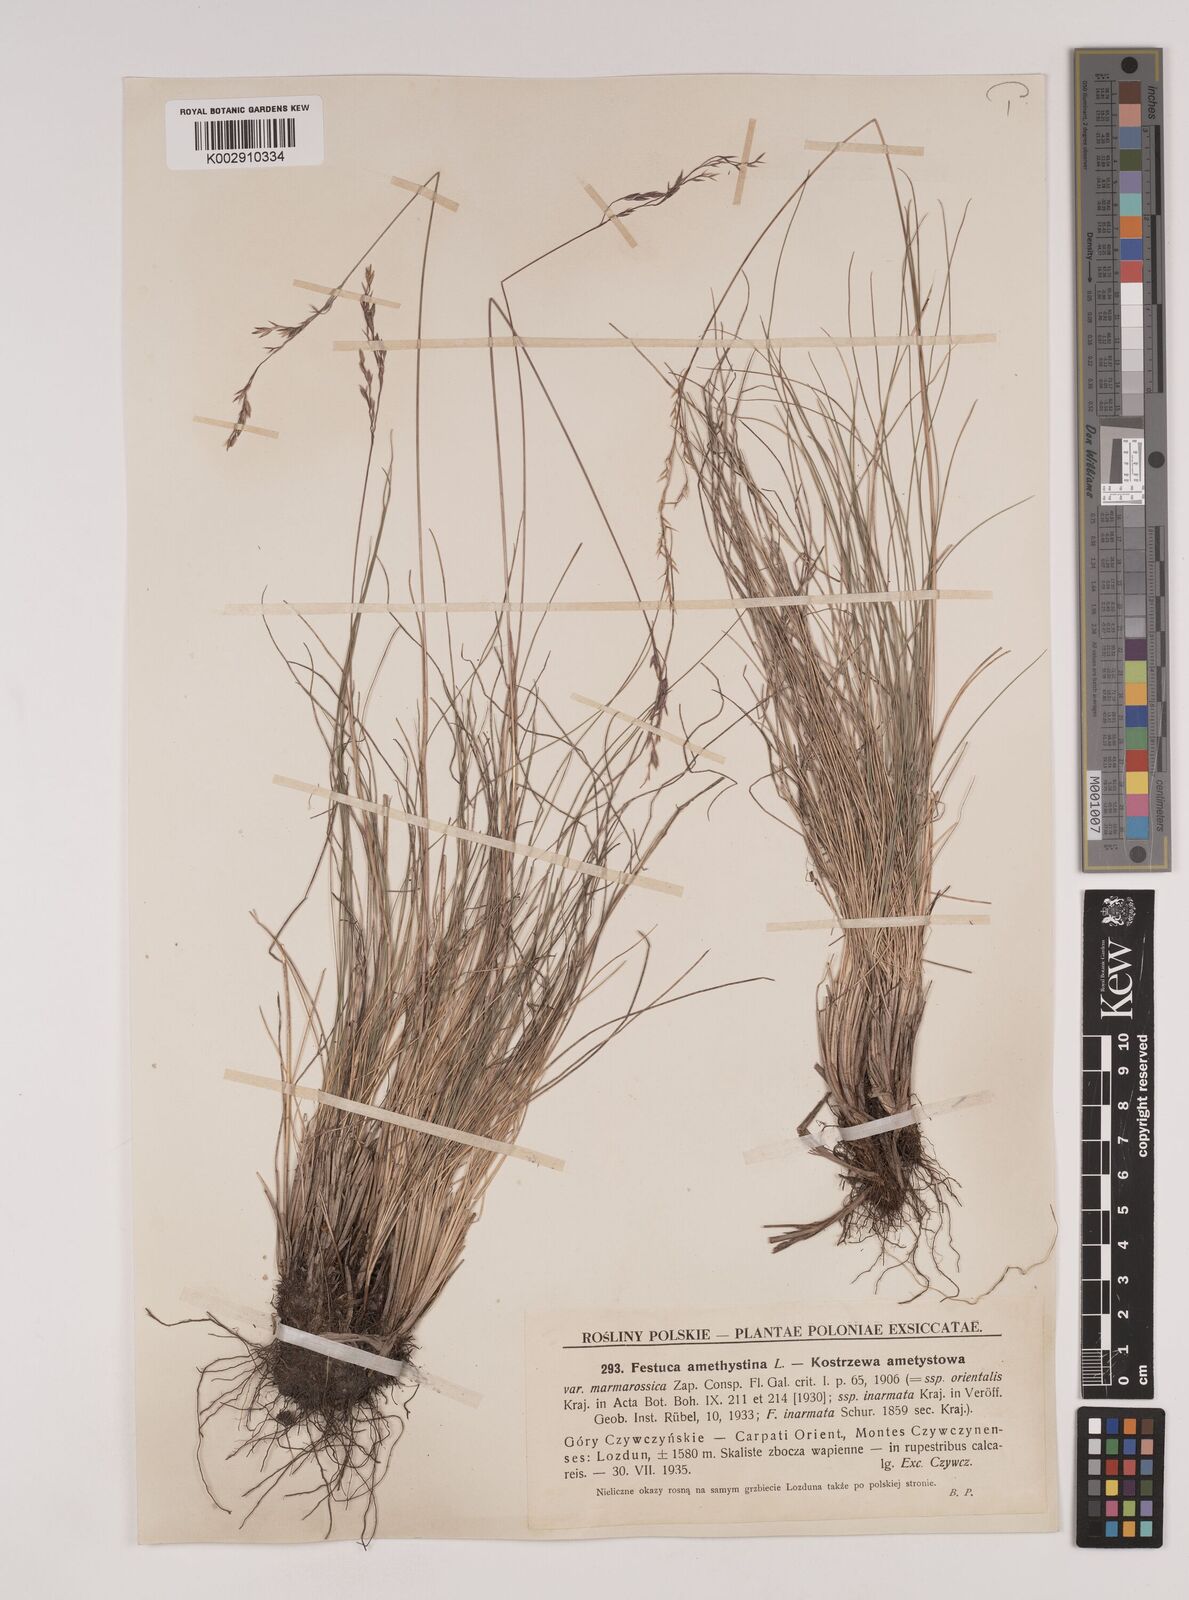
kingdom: Plantae
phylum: Tracheophyta
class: Liliopsida
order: Poales
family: Poaceae
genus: Festuca
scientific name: Festuca amethystina
